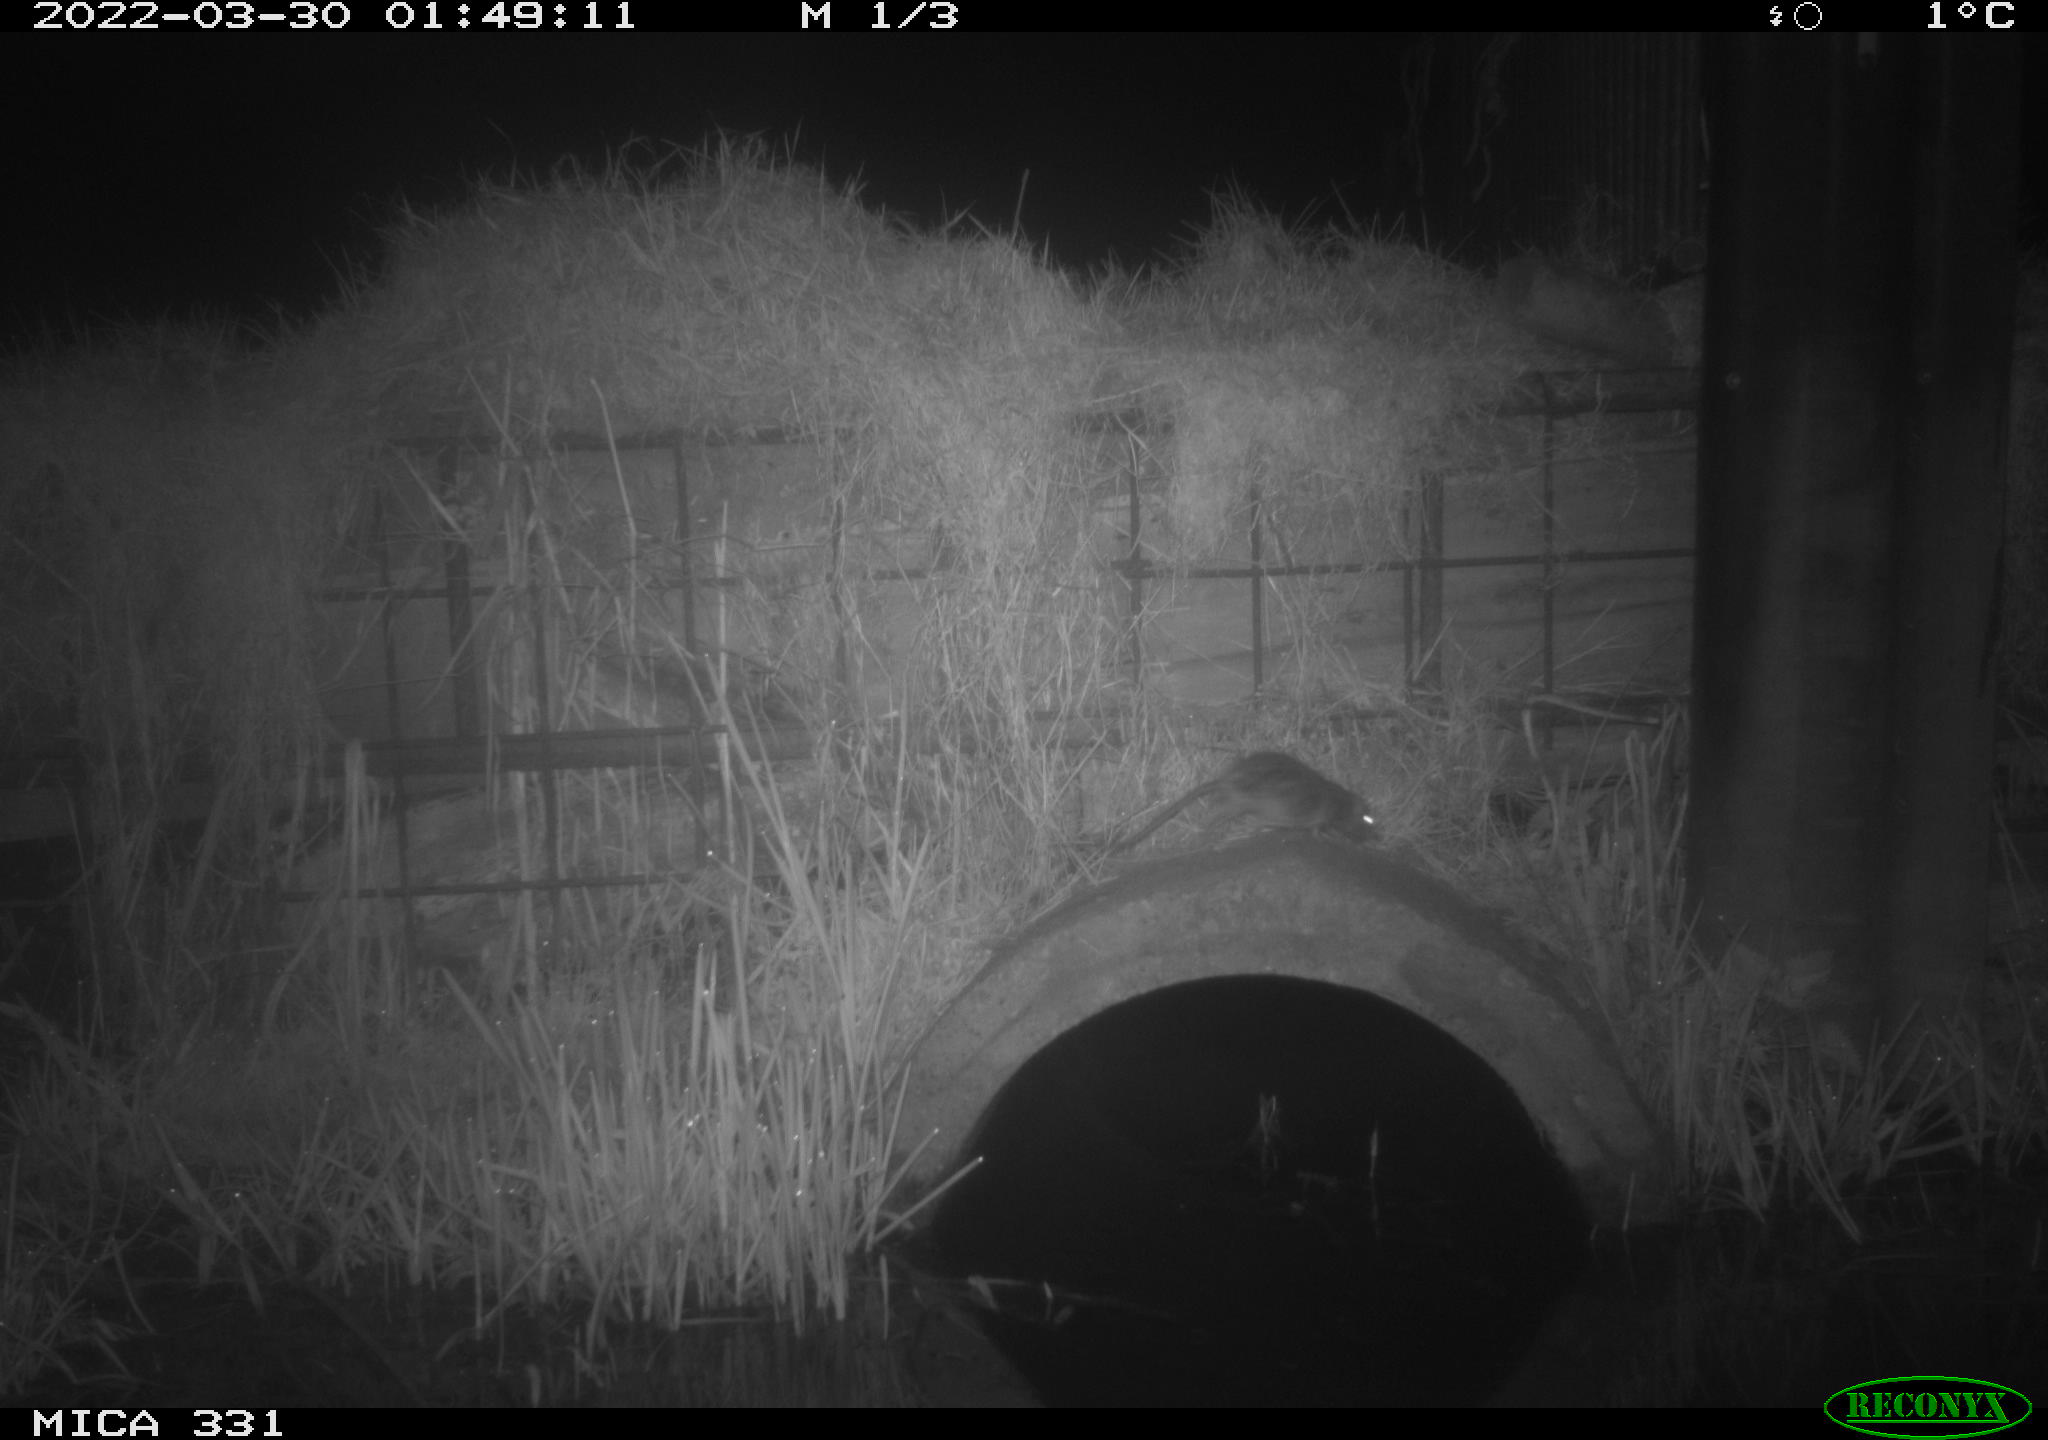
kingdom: Animalia
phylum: Chordata
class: Mammalia
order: Rodentia
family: Muridae
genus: Rattus
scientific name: Rattus norvegicus
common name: Brown rat
